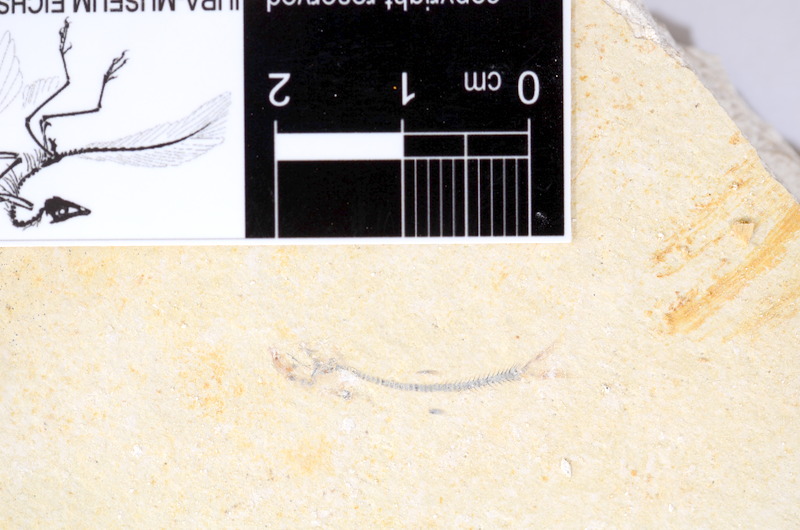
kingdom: Animalia
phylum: Chordata
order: Salmoniformes
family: Orthogonikleithridae
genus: Orthogonikleithrus
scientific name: Orthogonikleithrus hoelli
